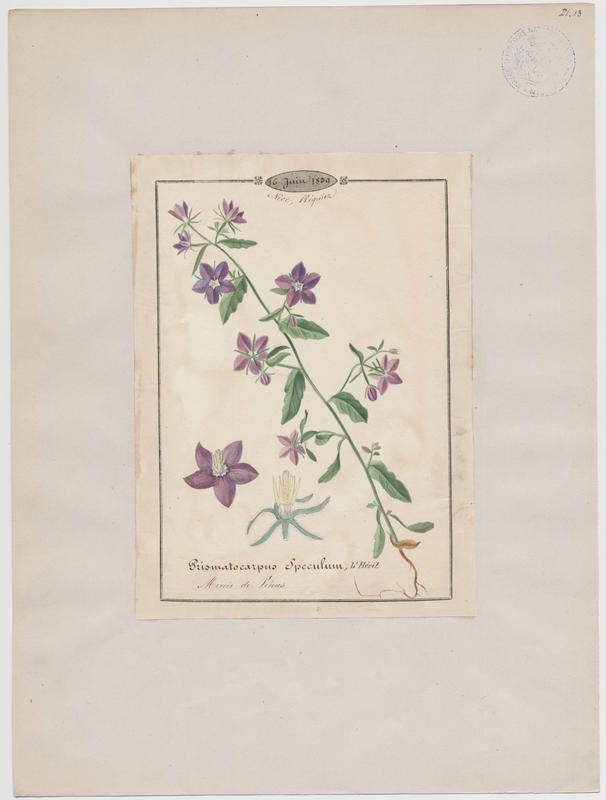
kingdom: Plantae
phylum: Tracheophyta
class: Magnoliopsida
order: Asterales
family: Campanulaceae
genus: Legousia
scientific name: Legousia speculum-veneris
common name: Large venus's-looking-glass
